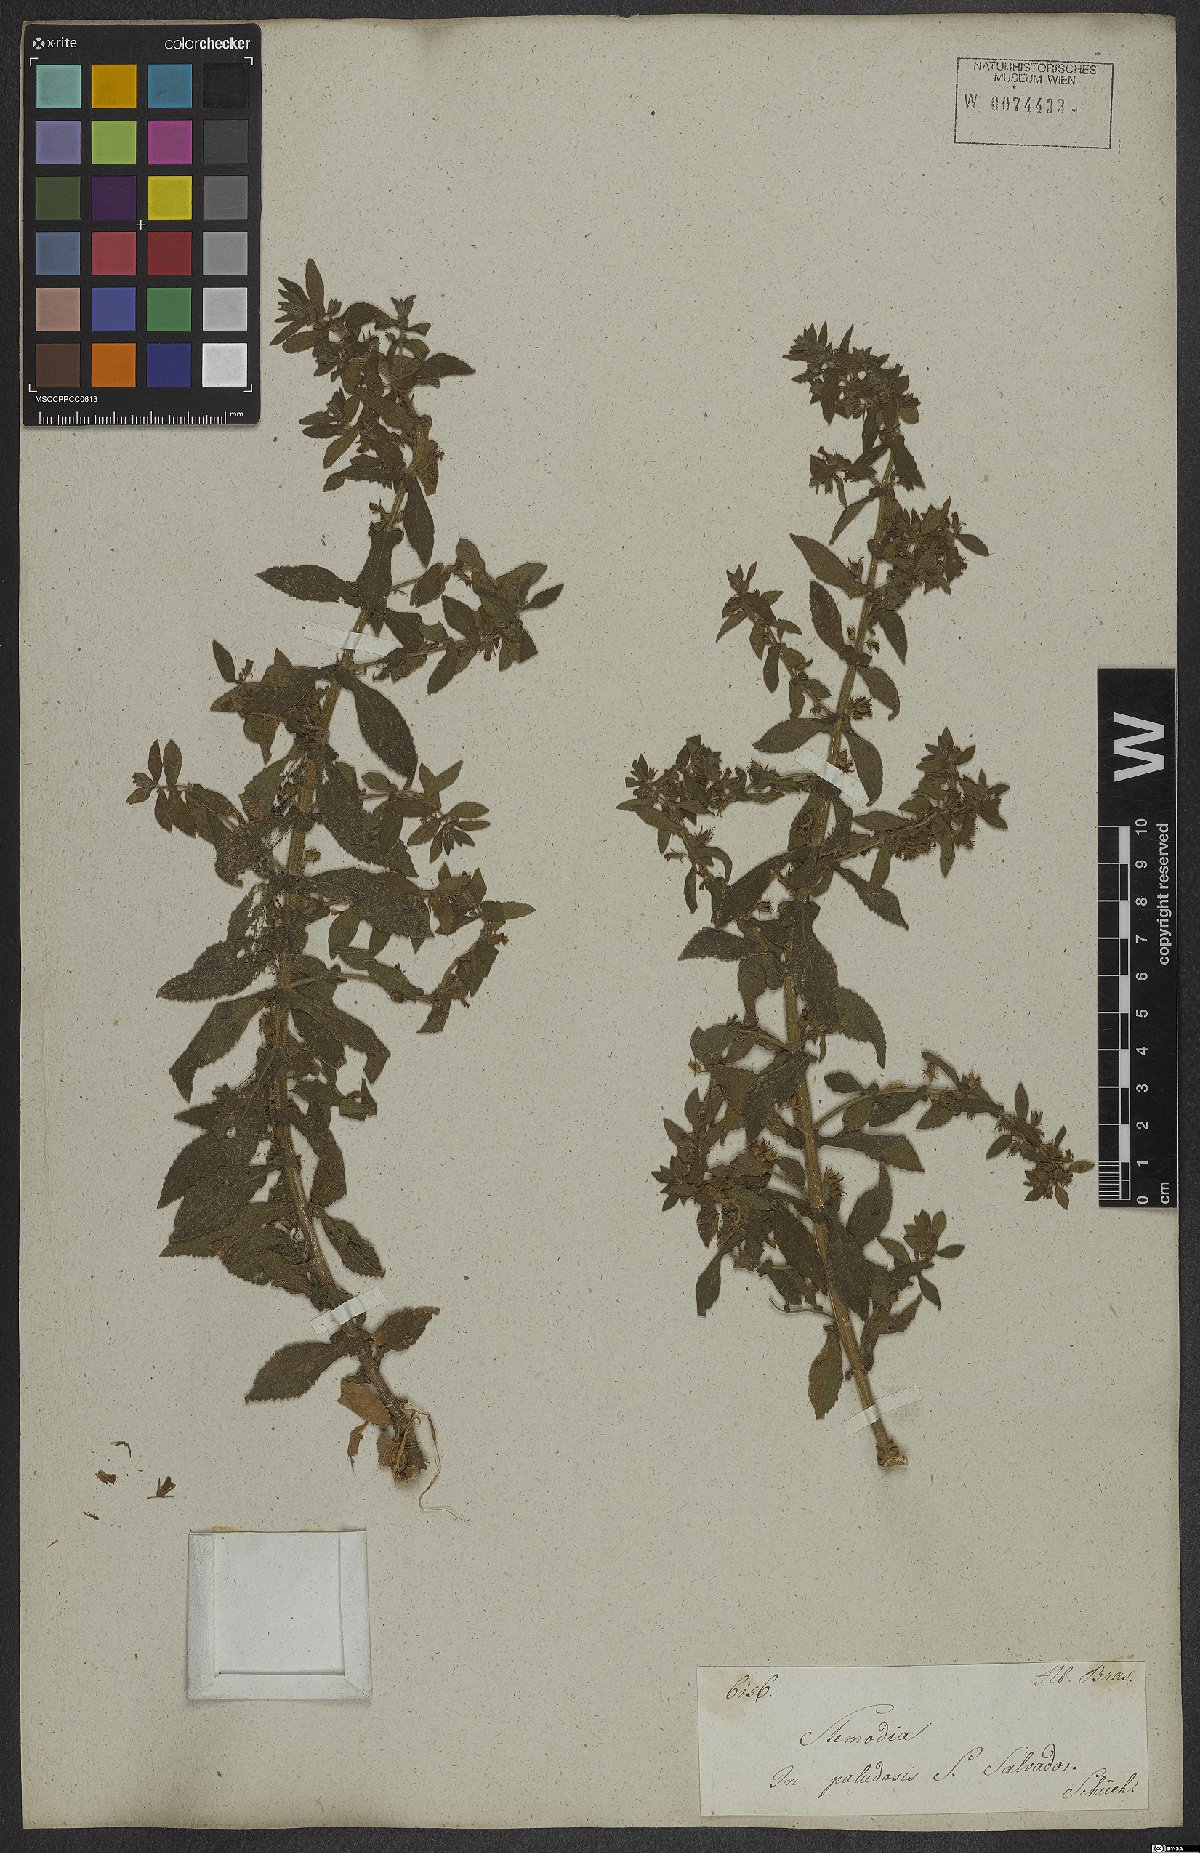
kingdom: Plantae
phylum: Tracheophyta
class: Magnoliopsida
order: Lamiales
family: Plantaginaceae
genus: Stemodia
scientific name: Stemodia
